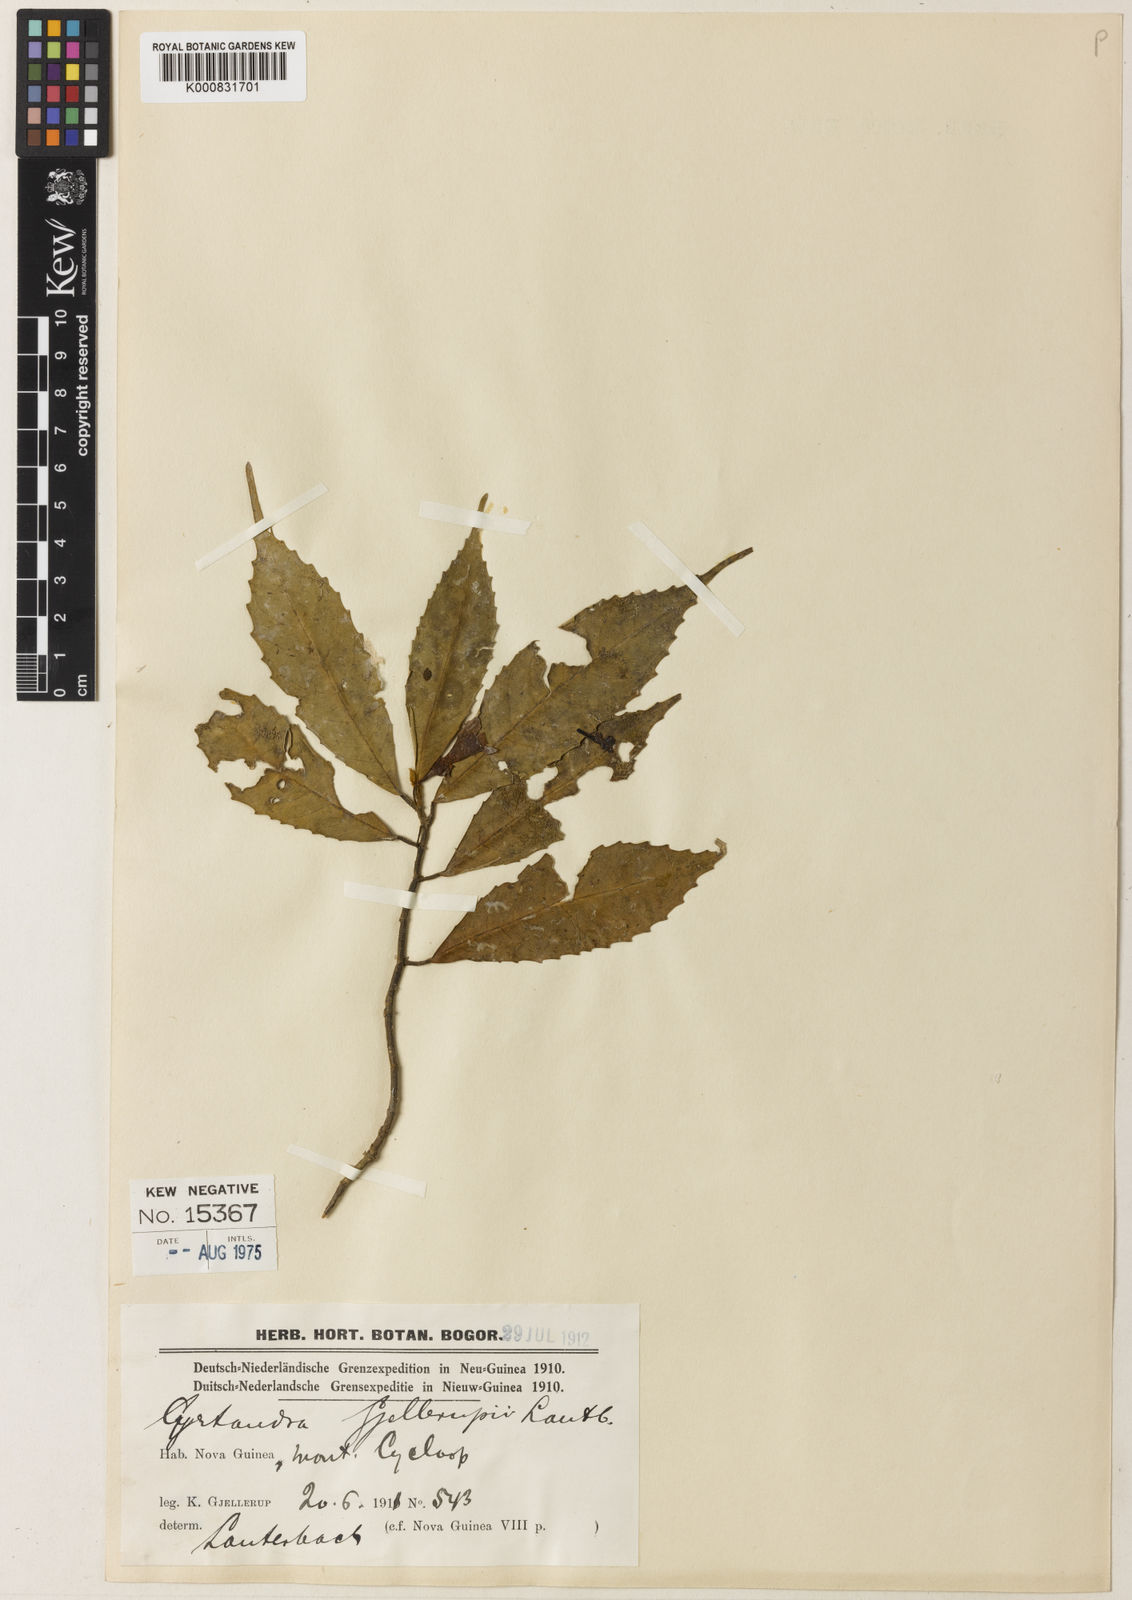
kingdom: Plantae
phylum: Tracheophyta
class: Magnoliopsida
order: Lamiales
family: Gesneriaceae
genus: Cyrtandra
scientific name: Cyrtandra gjellerupii
